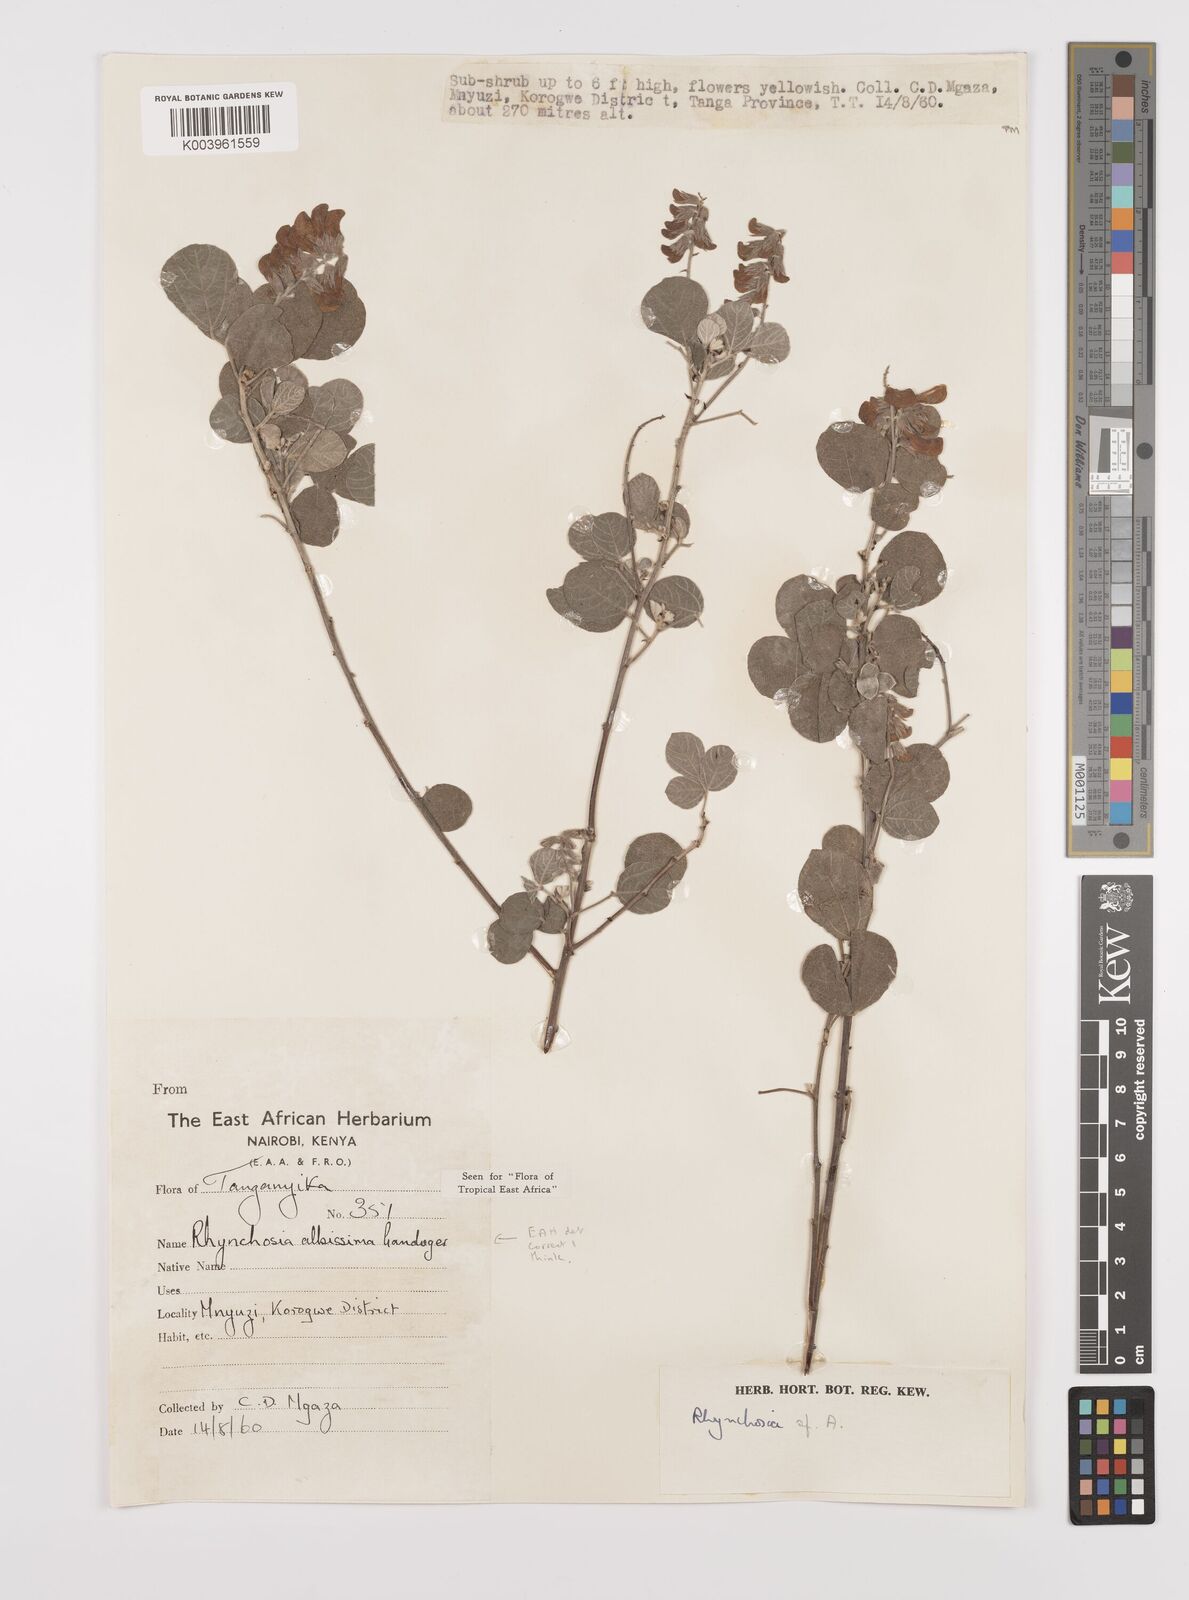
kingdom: Plantae
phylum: Tracheophyta
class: Magnoliopsida
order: Fabales
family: Fabaceae
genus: Rhynchosia
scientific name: Rhynchosia albissima
